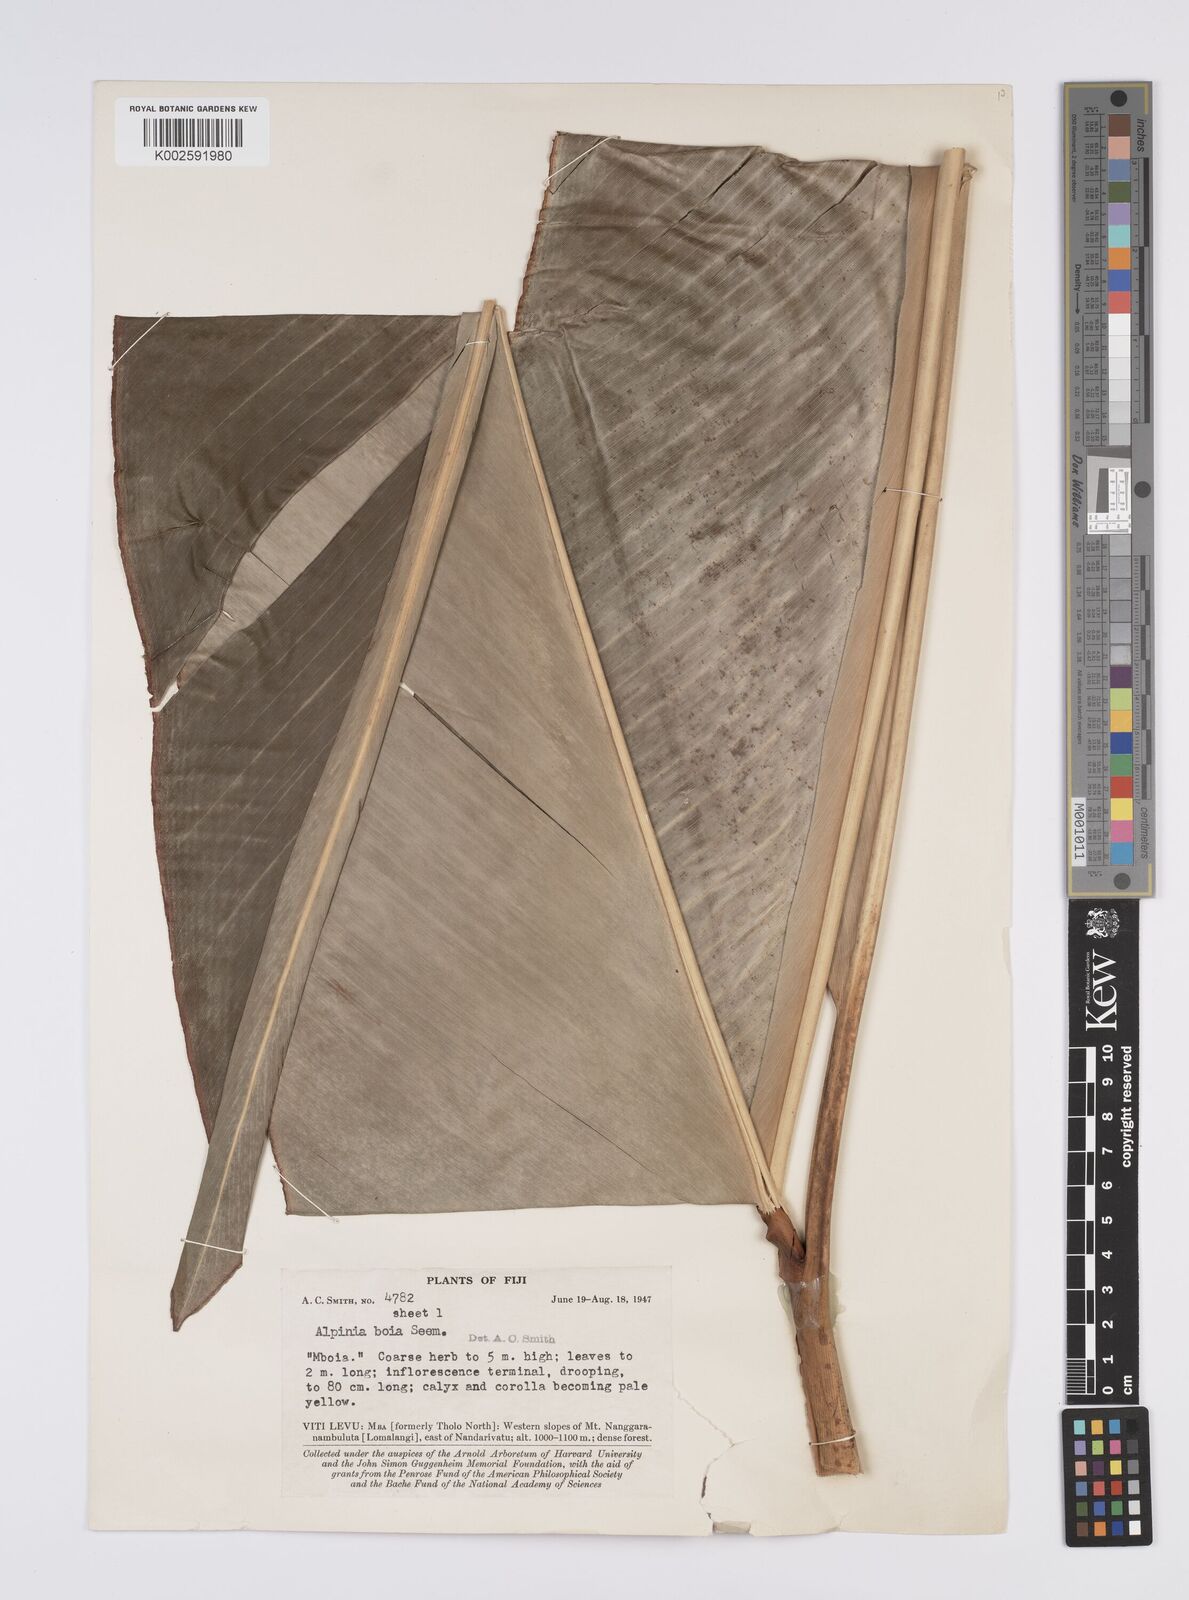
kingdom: Plantae
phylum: Tracheophyta
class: Liliopsida
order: Zingiberales
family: Zingiberaceae
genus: Alpinia
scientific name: Alpinia boia
